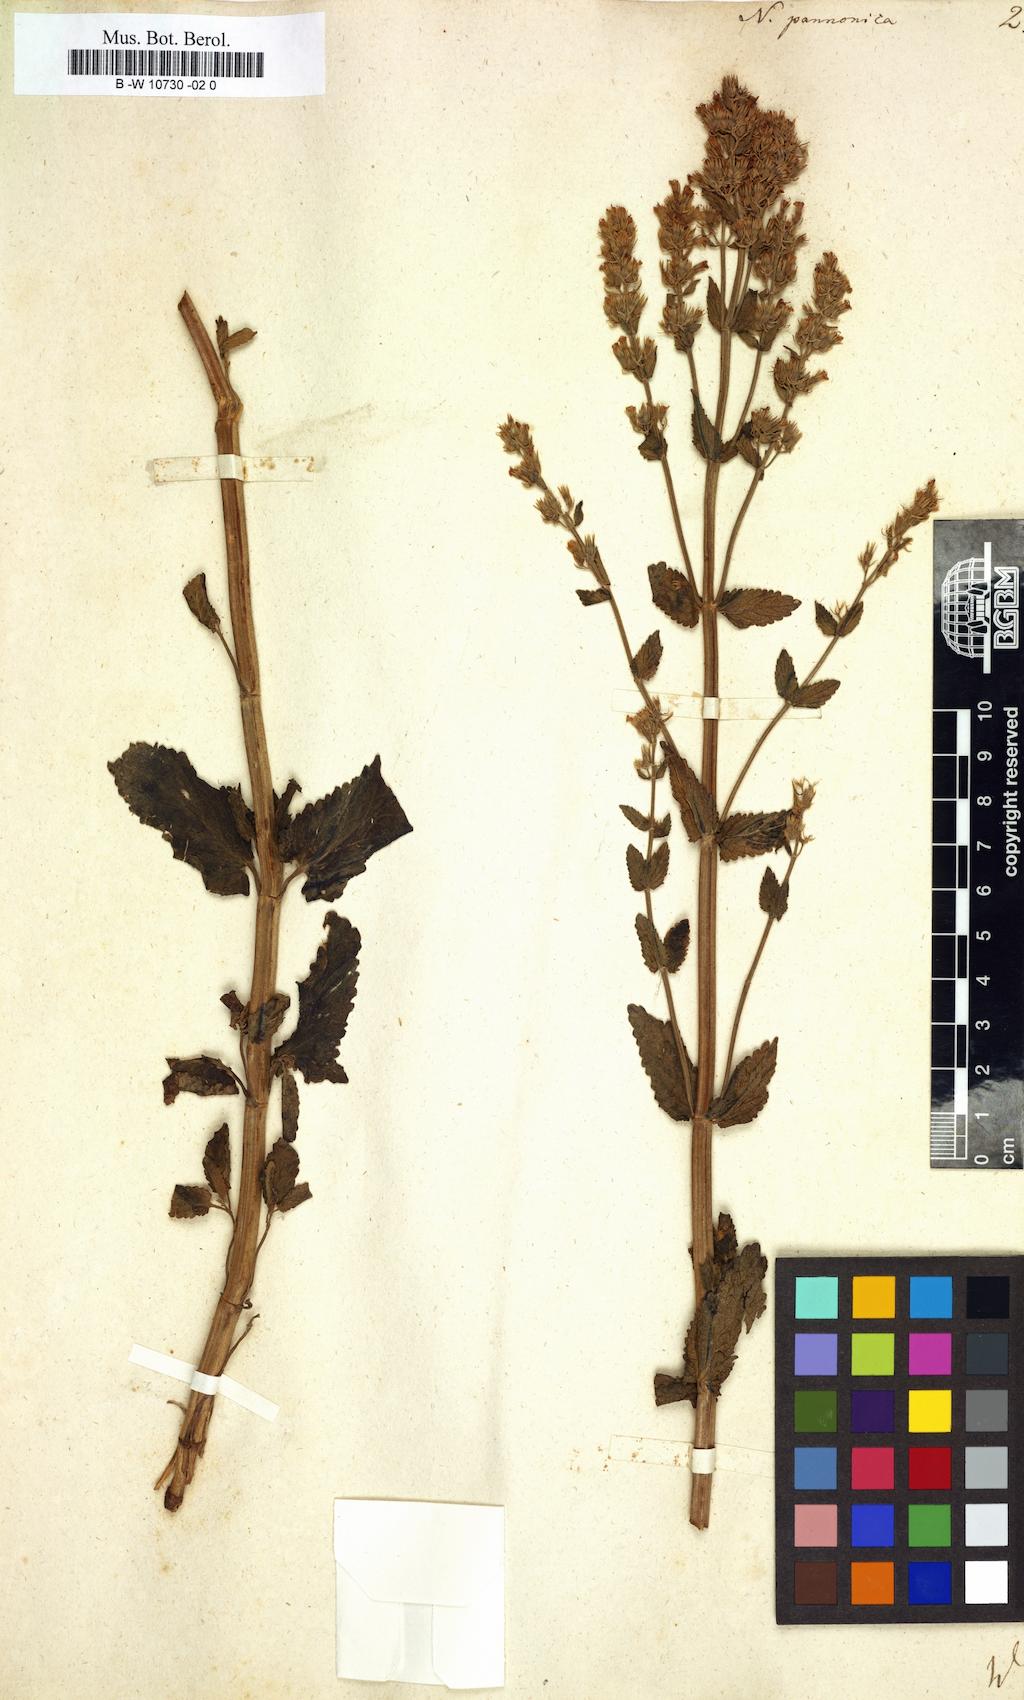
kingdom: Plantae
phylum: Tracheophyta
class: Magnoliopsida
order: Lamiales
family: Lamiaceae
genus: Nepeta
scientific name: Nepeta nuda
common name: Hairless catmint
